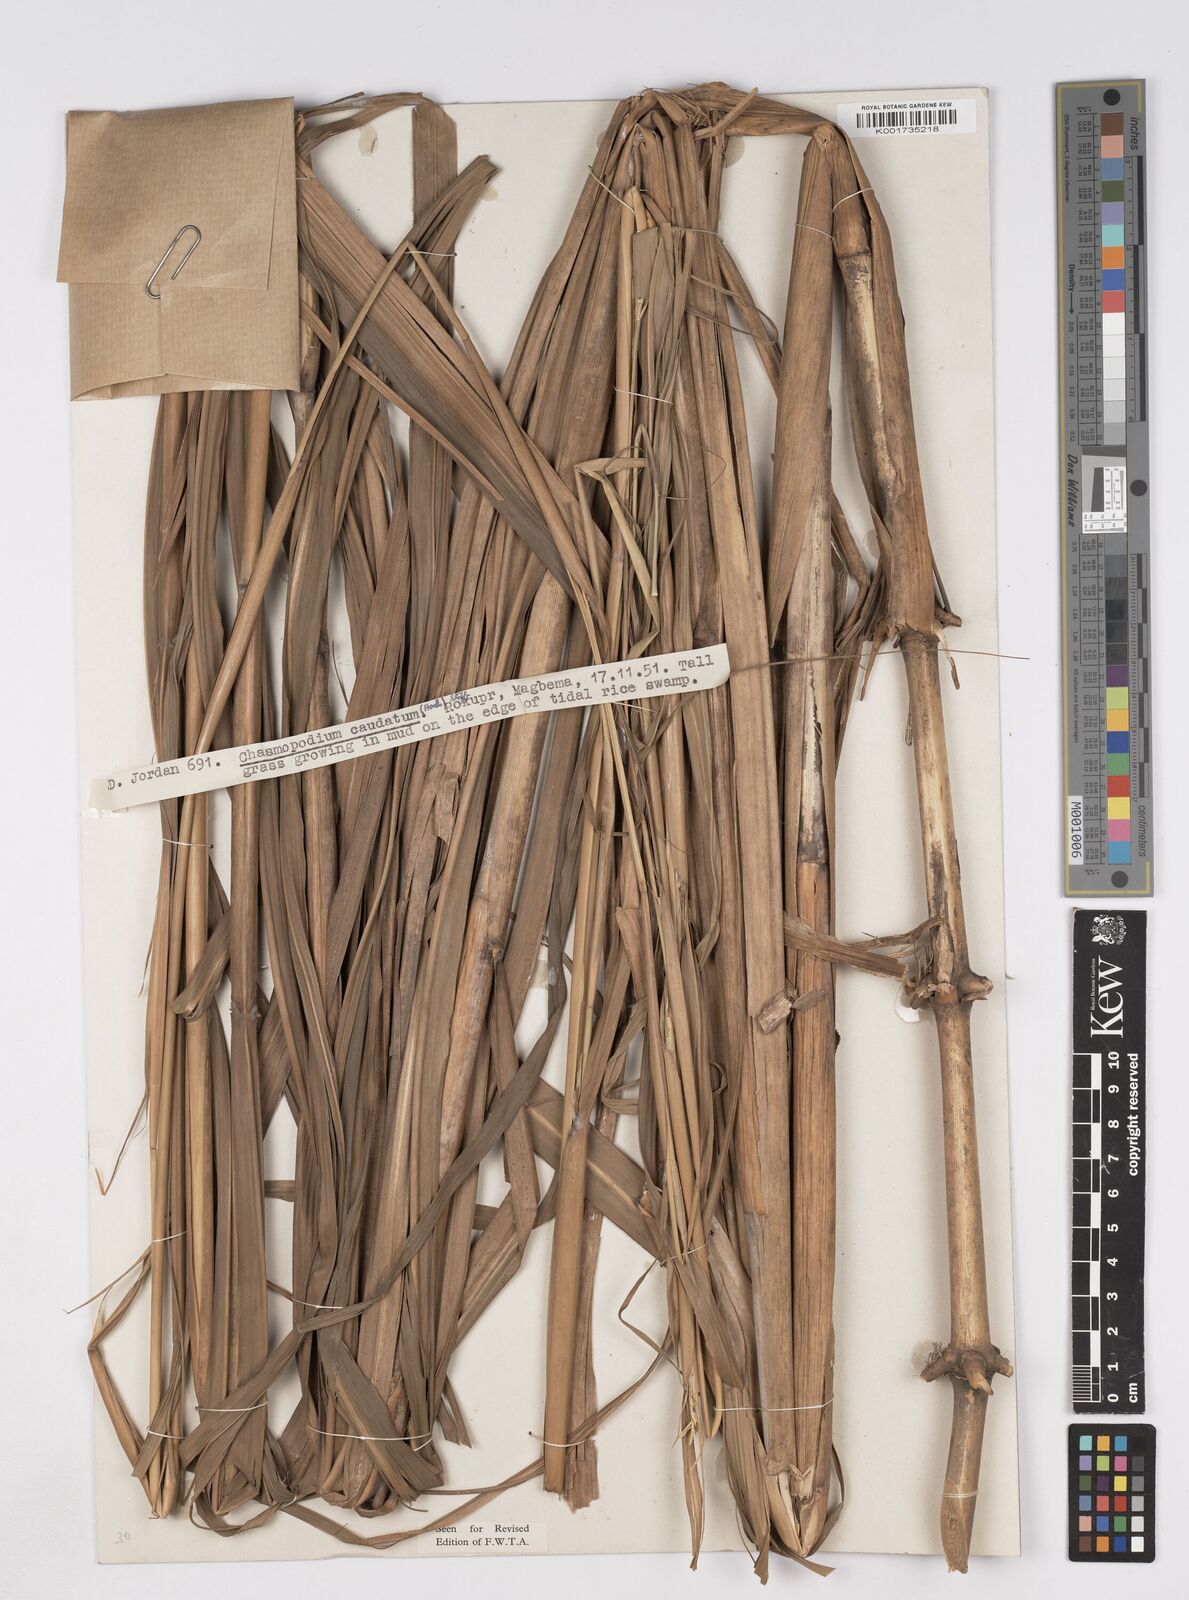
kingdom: Plantae
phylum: Tracheophyta
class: Liliopsida
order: Poales
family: Poaceae
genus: Chasmopodium
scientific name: Chasmopodium caudatum
